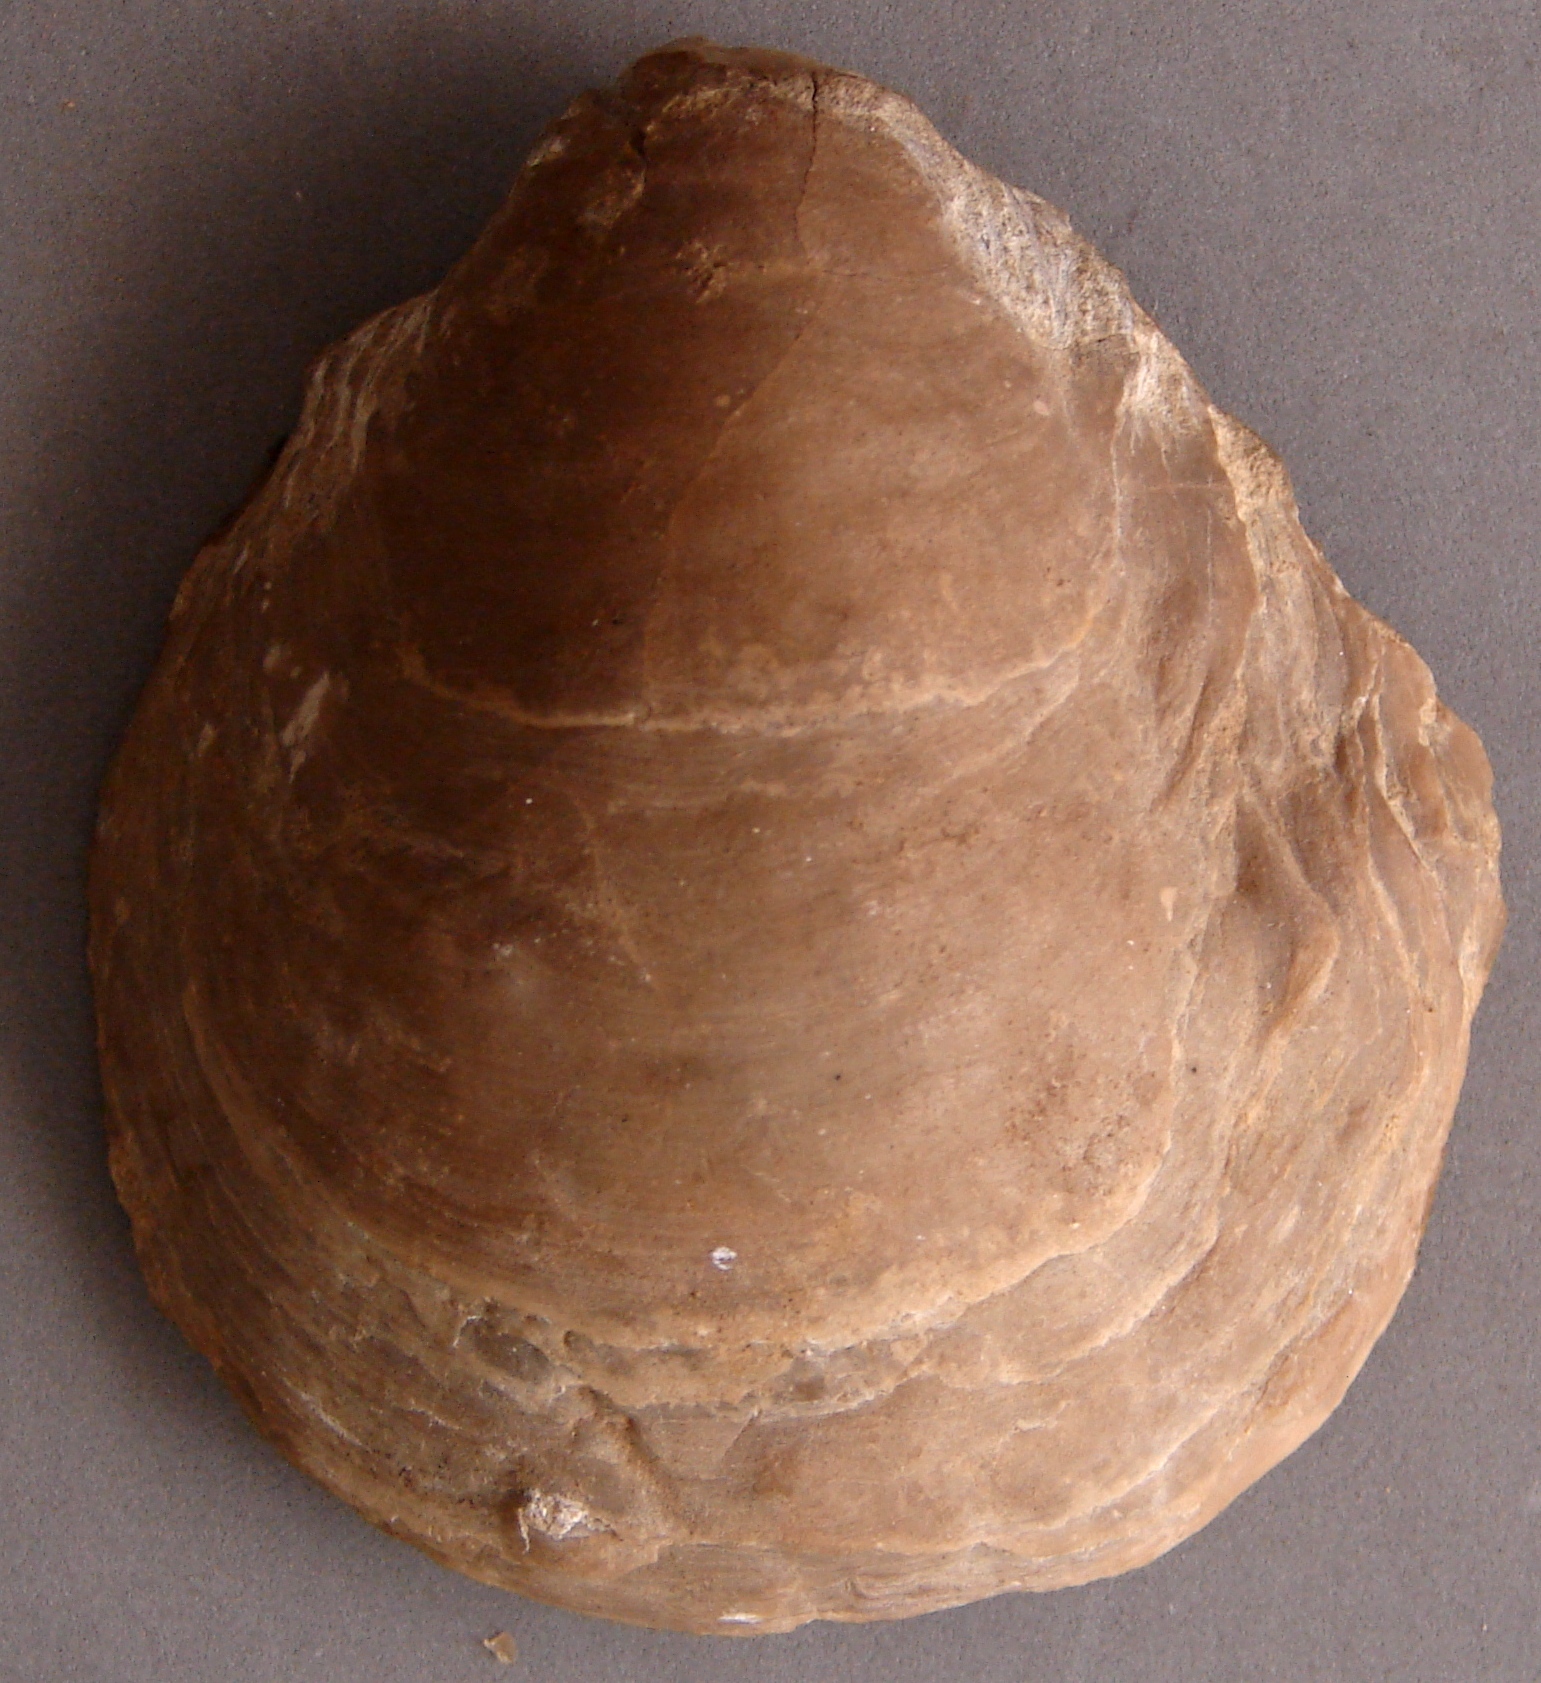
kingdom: Animalia
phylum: Mollusca
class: Bivalvia
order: Ostreida
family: Gryphaeidae
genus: Gryphaea
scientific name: Gryphaea dilatata
